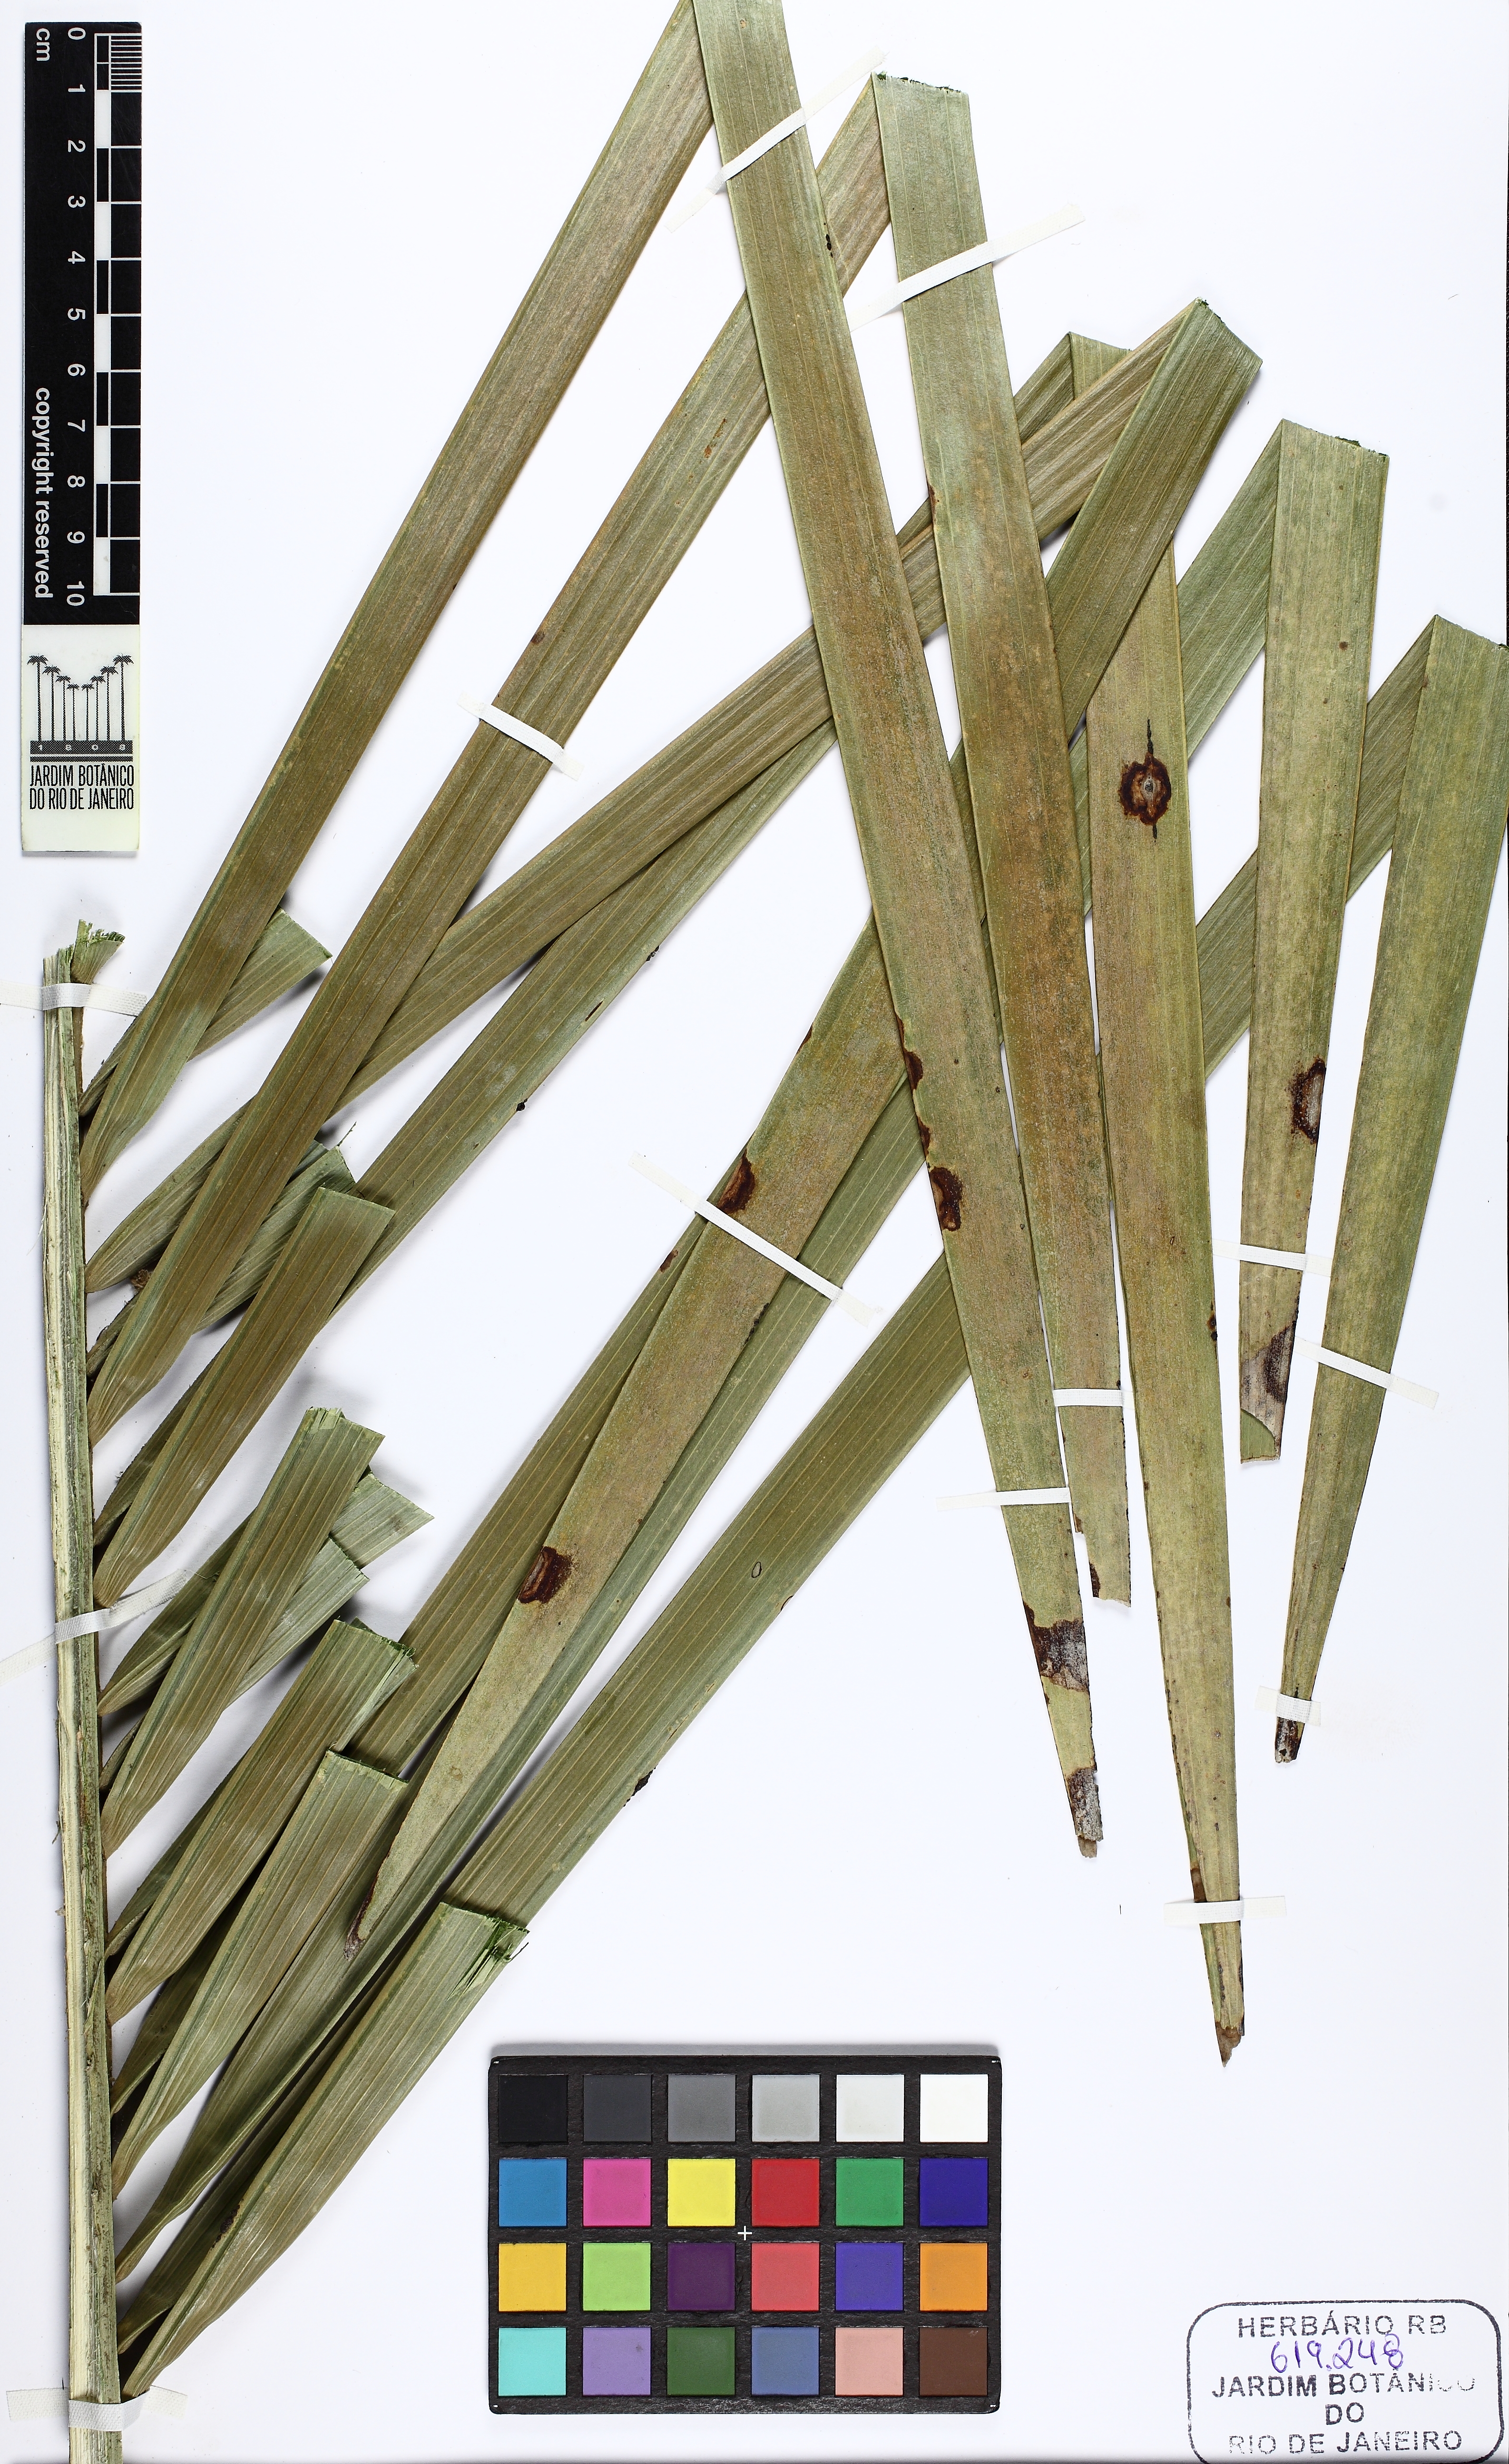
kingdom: Plantae
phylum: Tracheophyta
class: Liliopsida
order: Arecales
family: Arecaceae
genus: Syagrus
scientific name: Syagrus pseudococos
